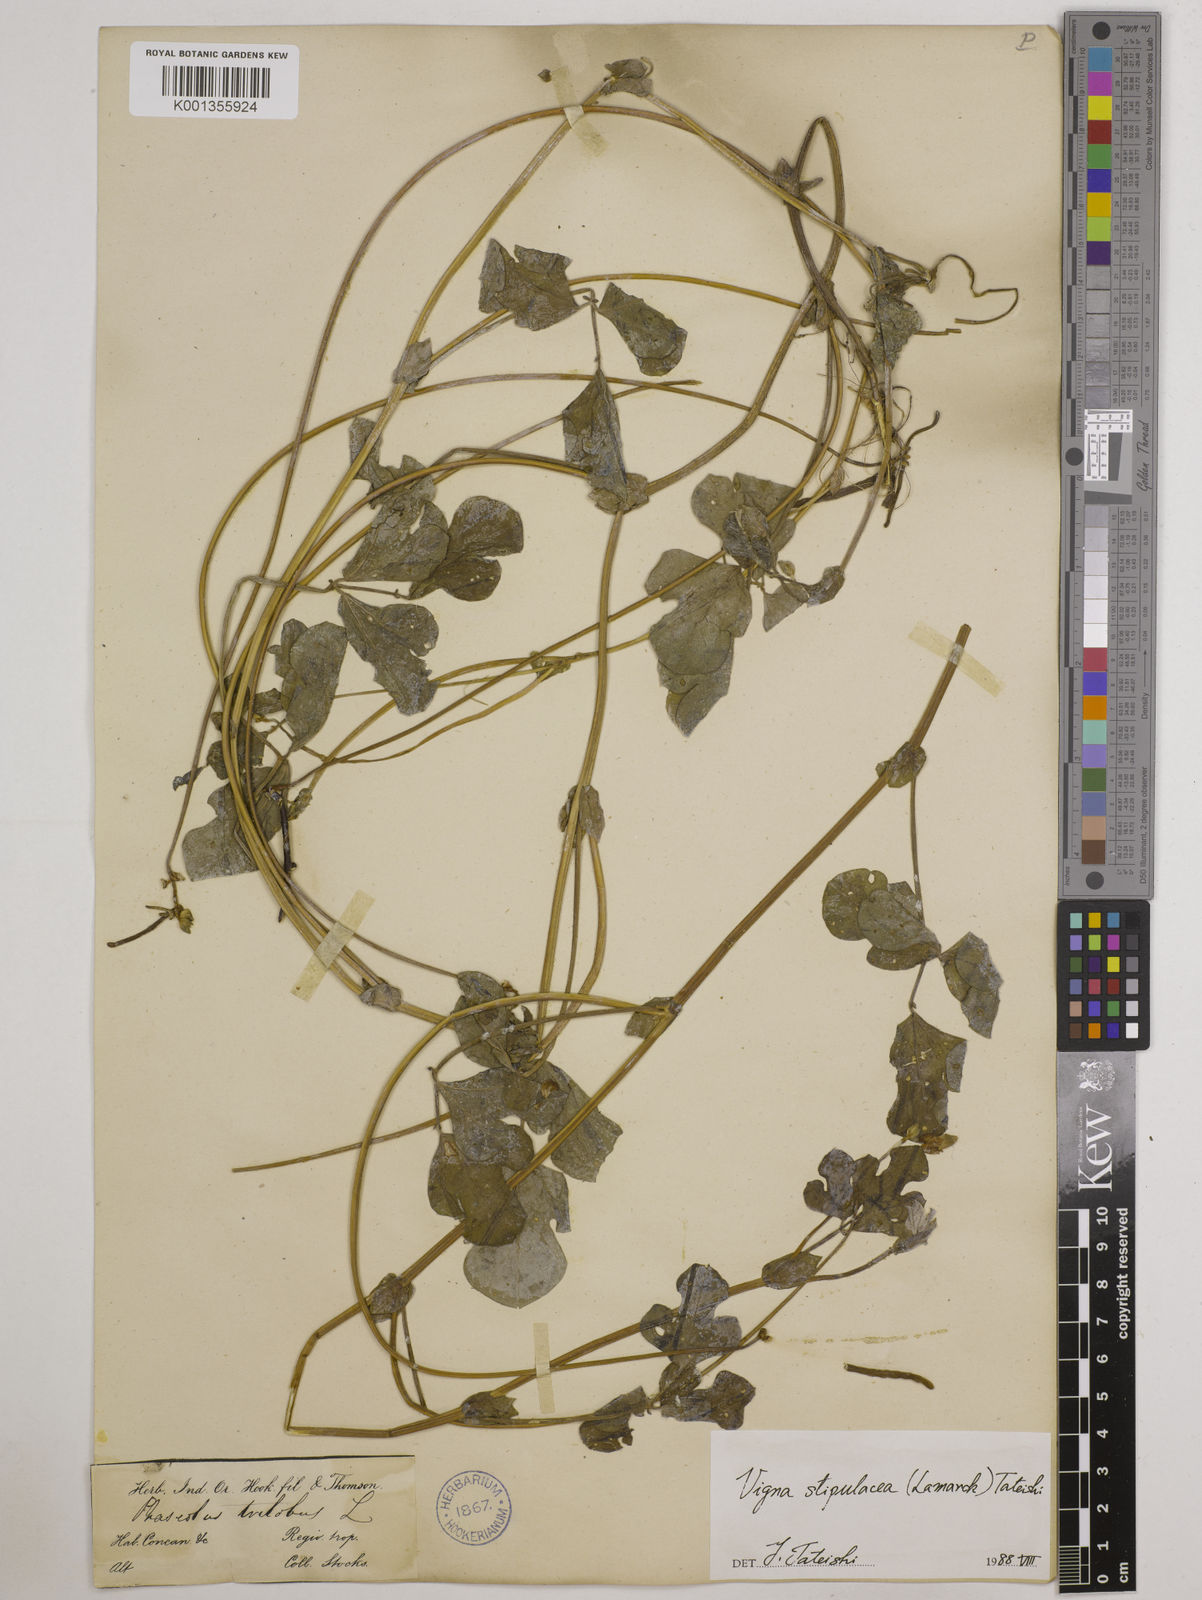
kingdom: Plantae
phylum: Tracheophyta
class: Magnoliopsida
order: Fabales
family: Fabaceae
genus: Pueraria
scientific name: Pueraria montana
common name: Kudzu
